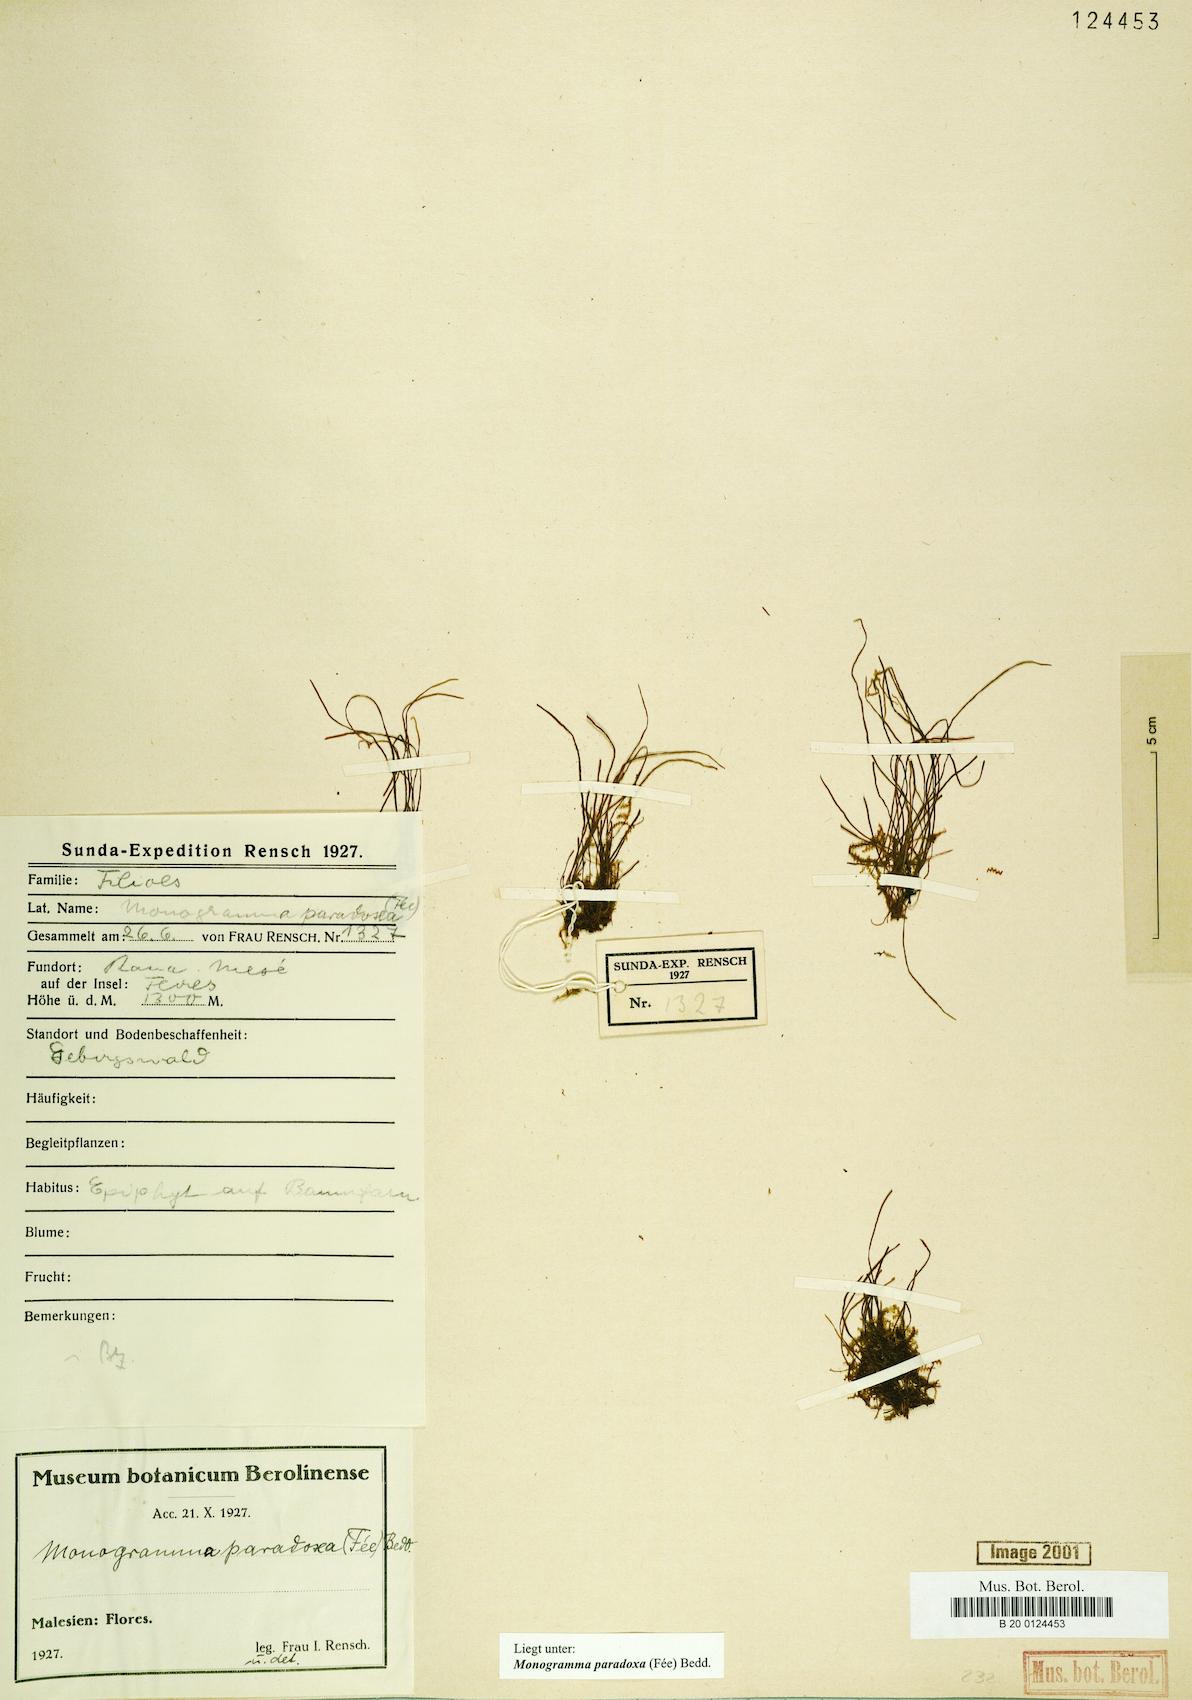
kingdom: Plantae
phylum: Tracheophyta
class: Polypodiopsida
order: Polypodiales
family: Pteridaceae
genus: Vaginularia
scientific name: Vaginularia paradoxa
